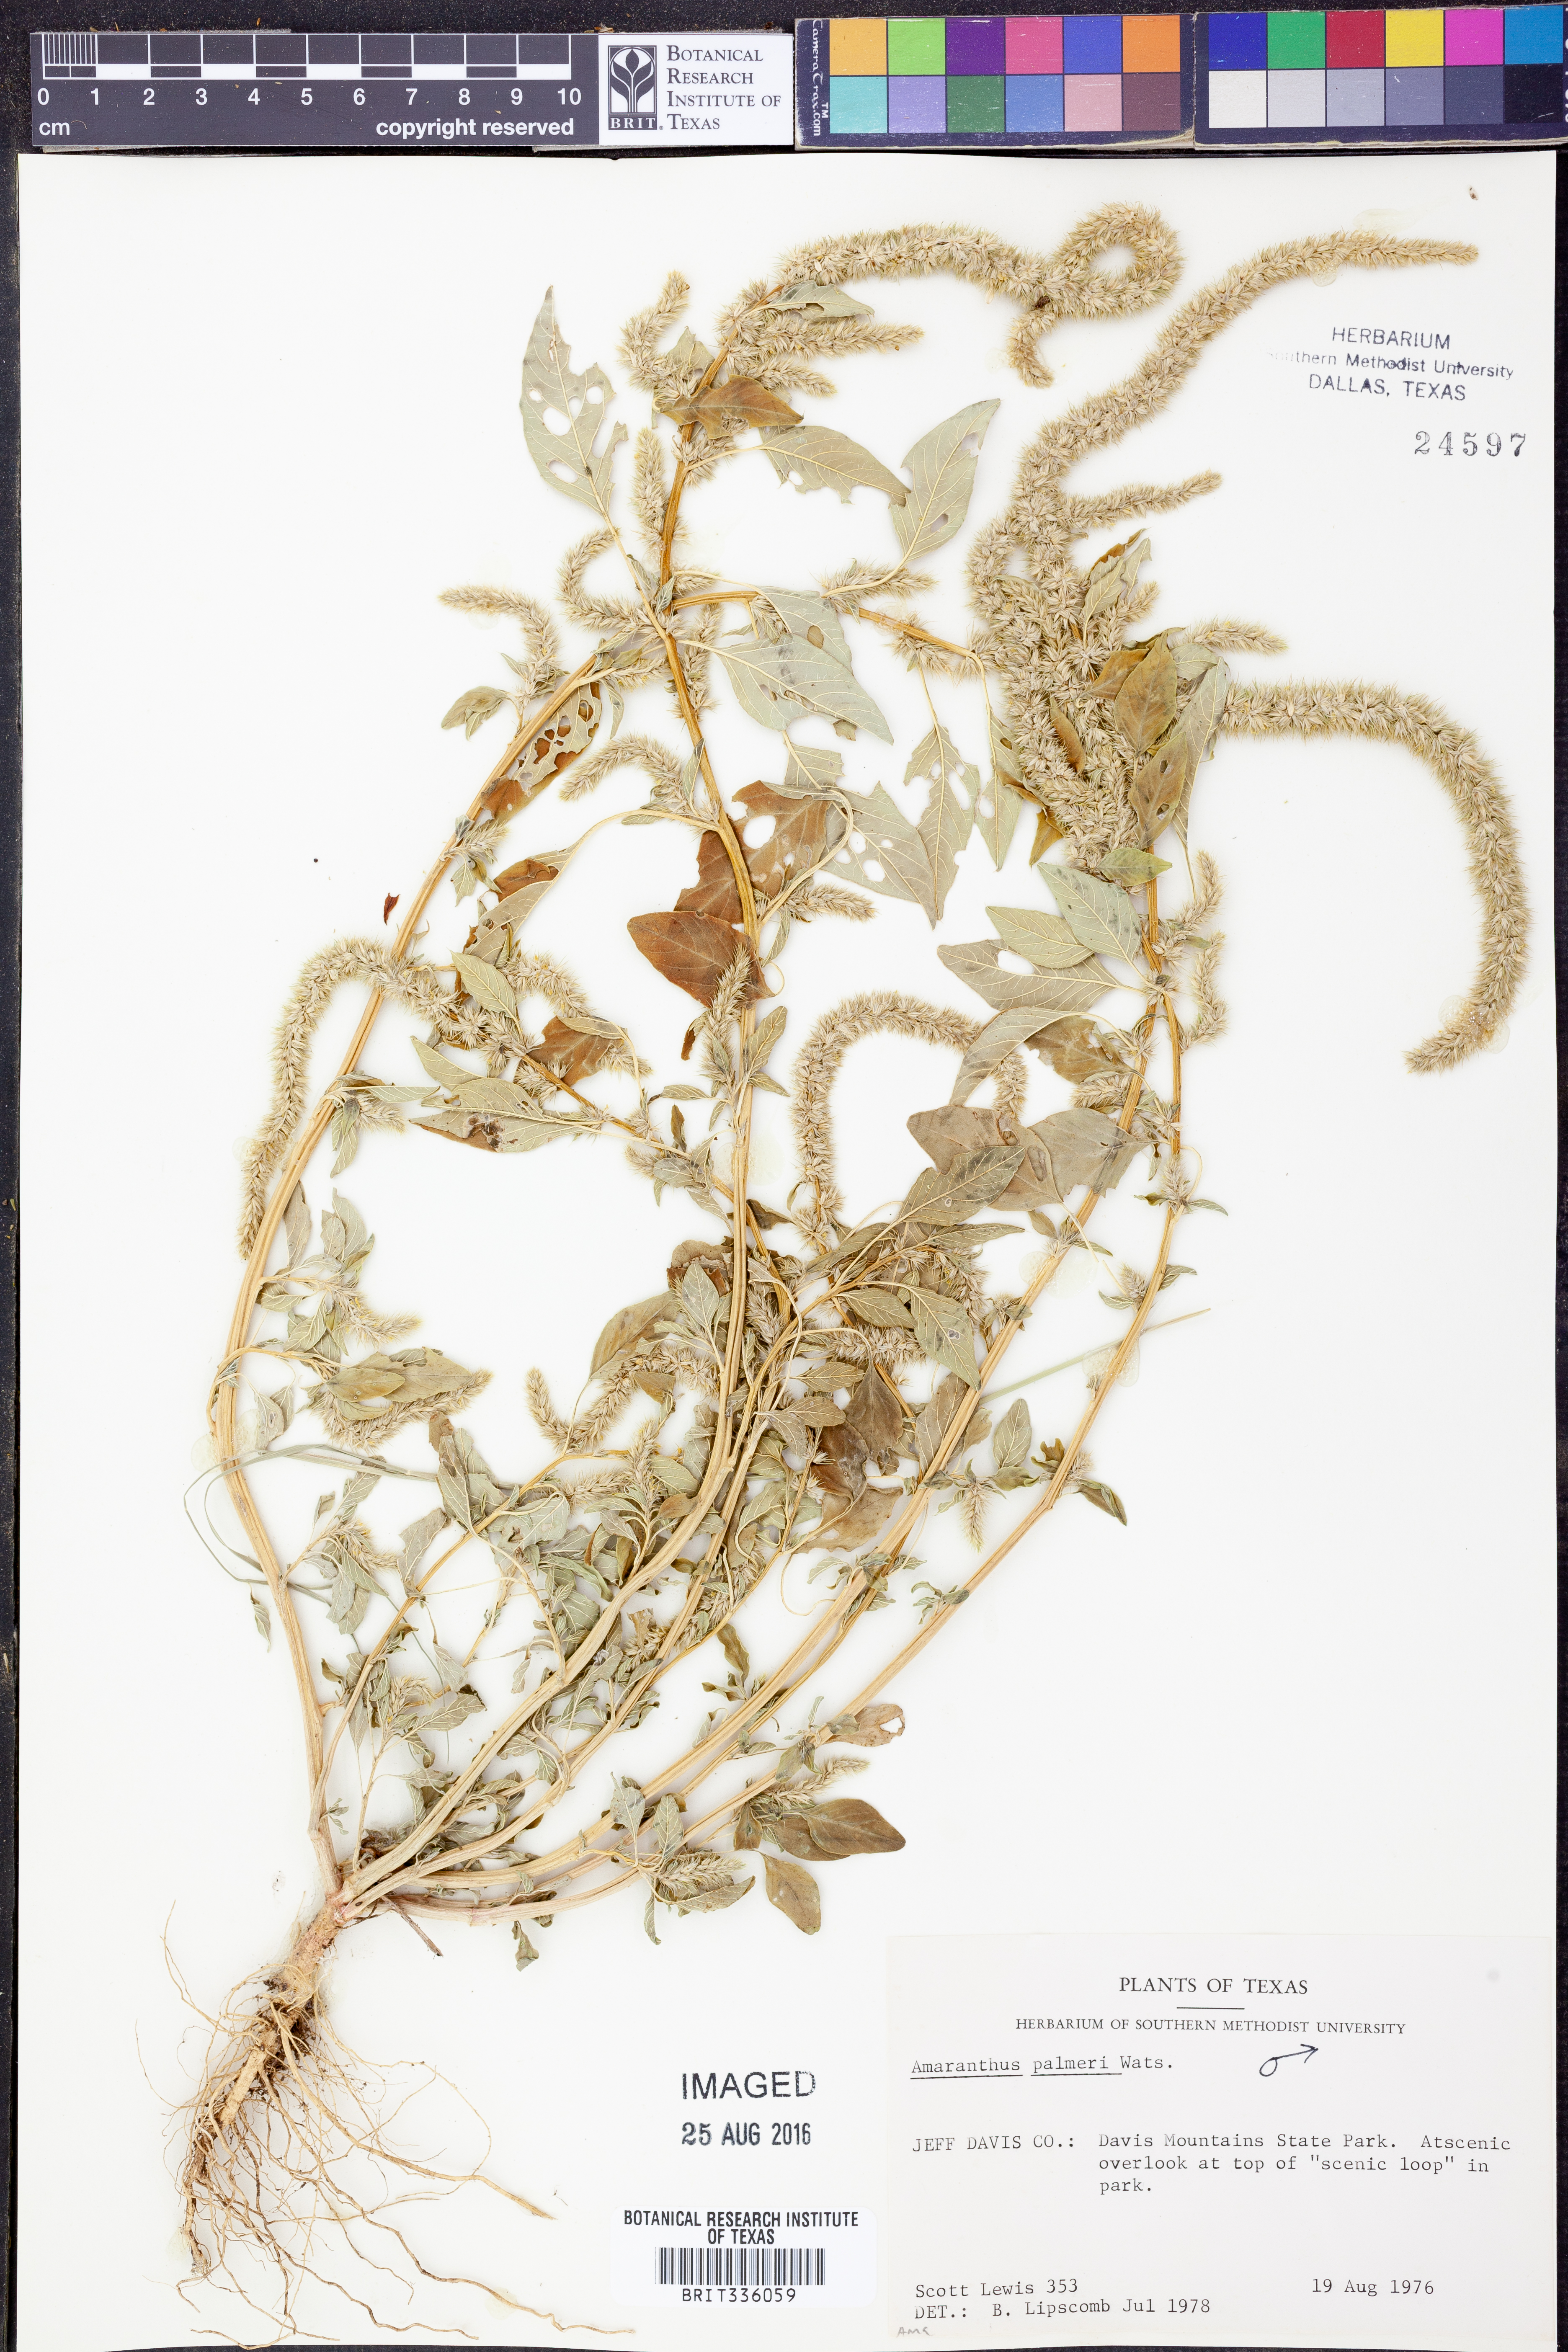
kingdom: Plantae
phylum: Tracheophyta
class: Magnoliopsida
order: Caryophyllales
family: Amaranthaceae
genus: Amaranthus
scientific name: Amaranthus palmeri
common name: Dioecious amaranth
